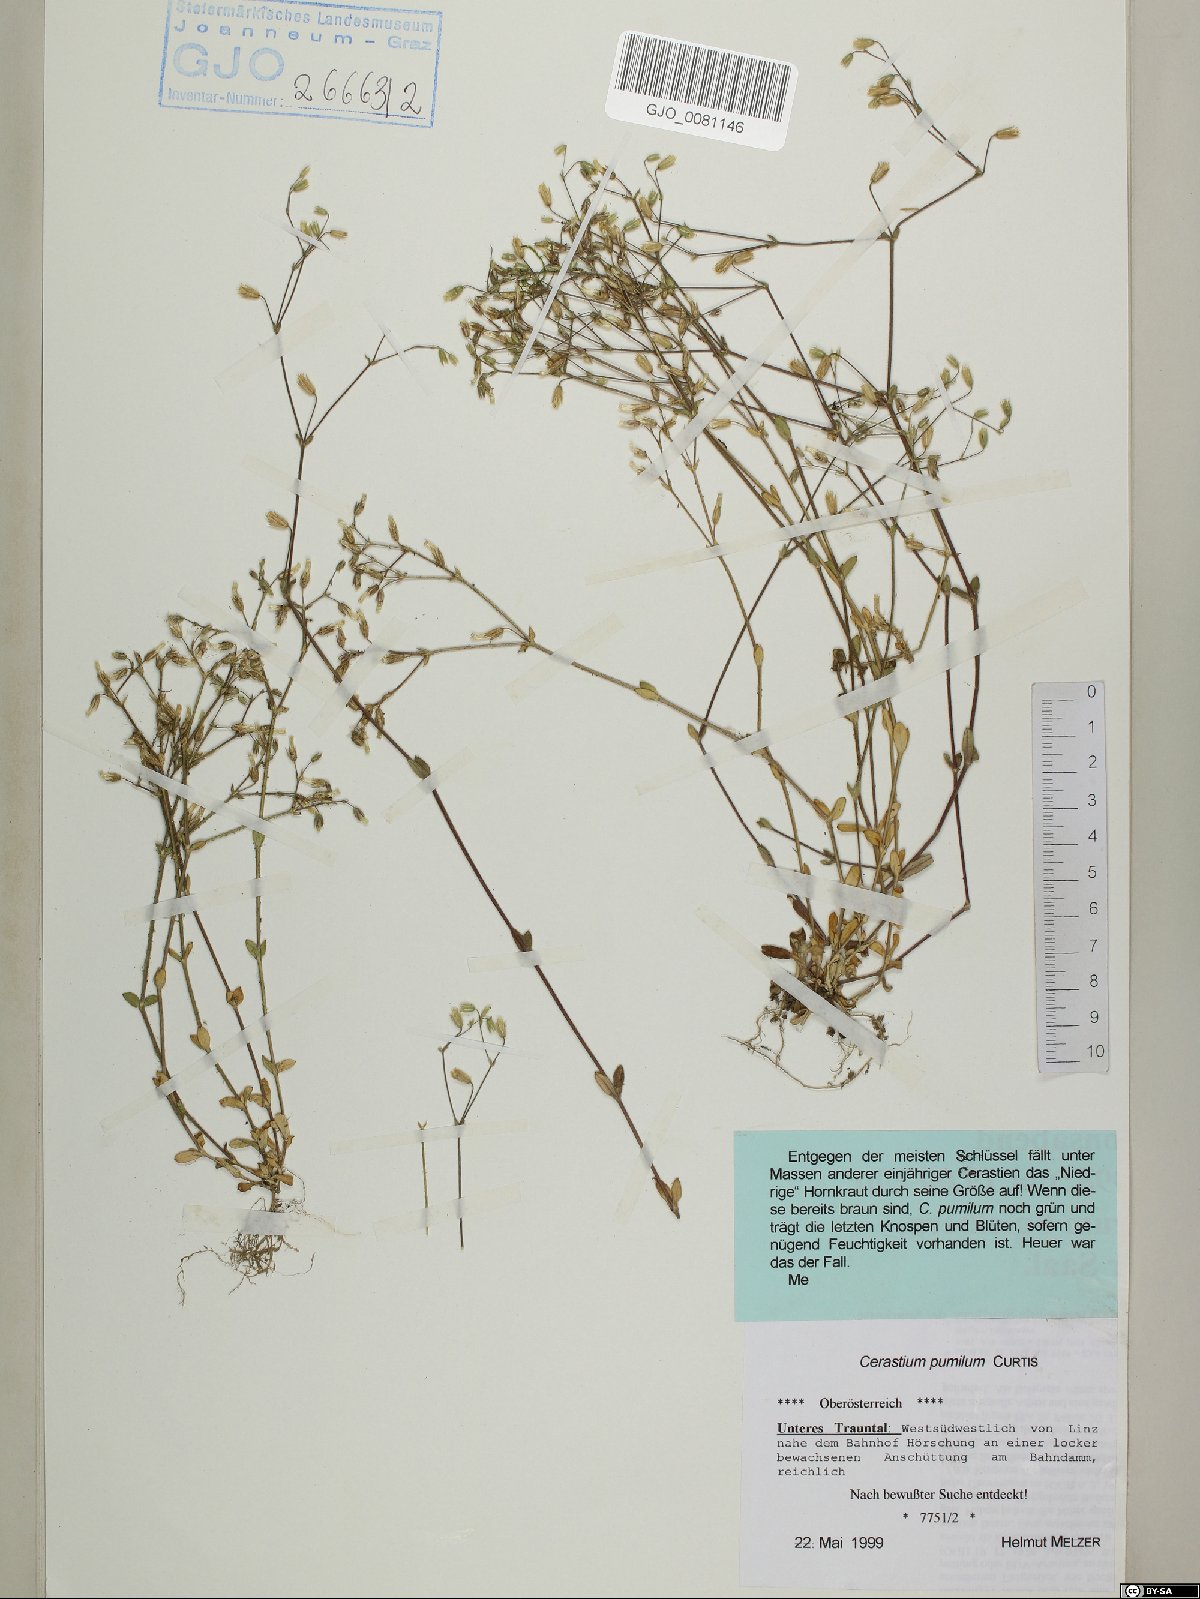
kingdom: Plantae
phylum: Tracheophyta
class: Magnoliopsida
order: Caryophyllales
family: Caryophyllaceae
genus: Cerastium
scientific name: Cerastium pumilum
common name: Dwarf mouse-ear
